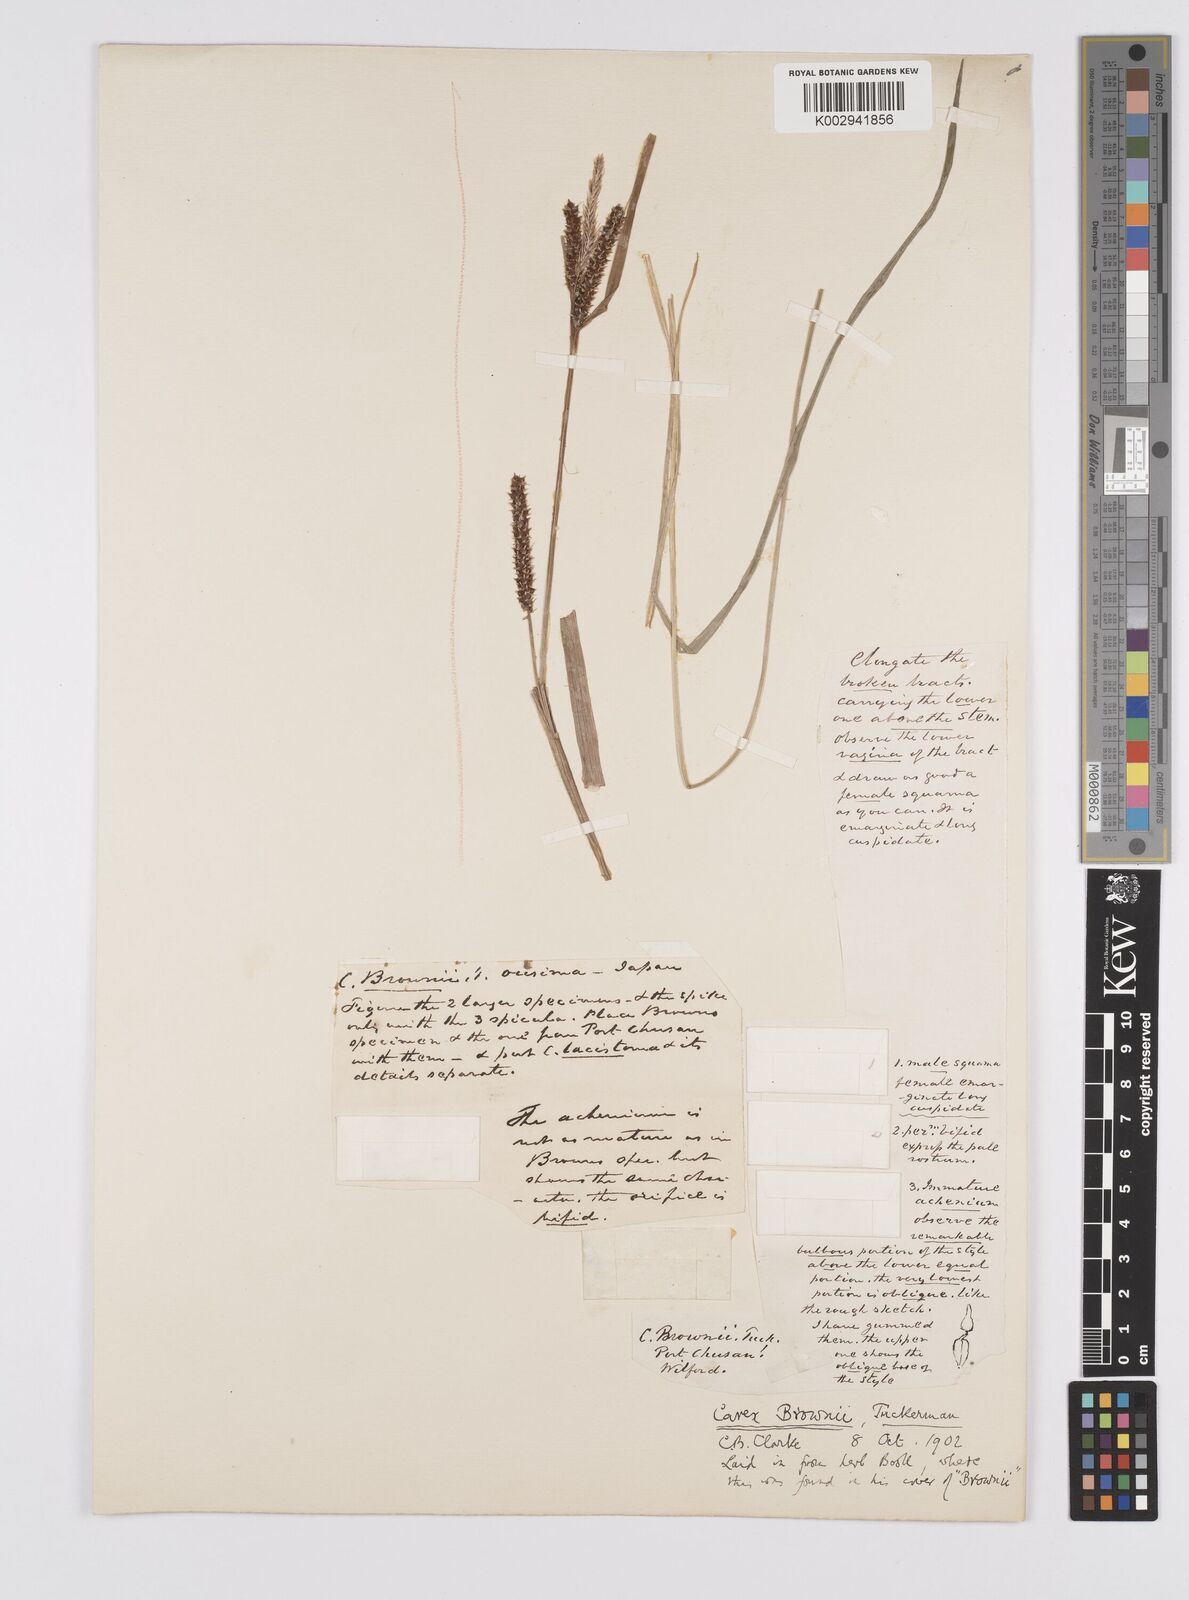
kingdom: Plantae
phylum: Tracheophyta
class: Liliopsida
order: Poales
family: Cyperaceae
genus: Carex
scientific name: Carex brownii
